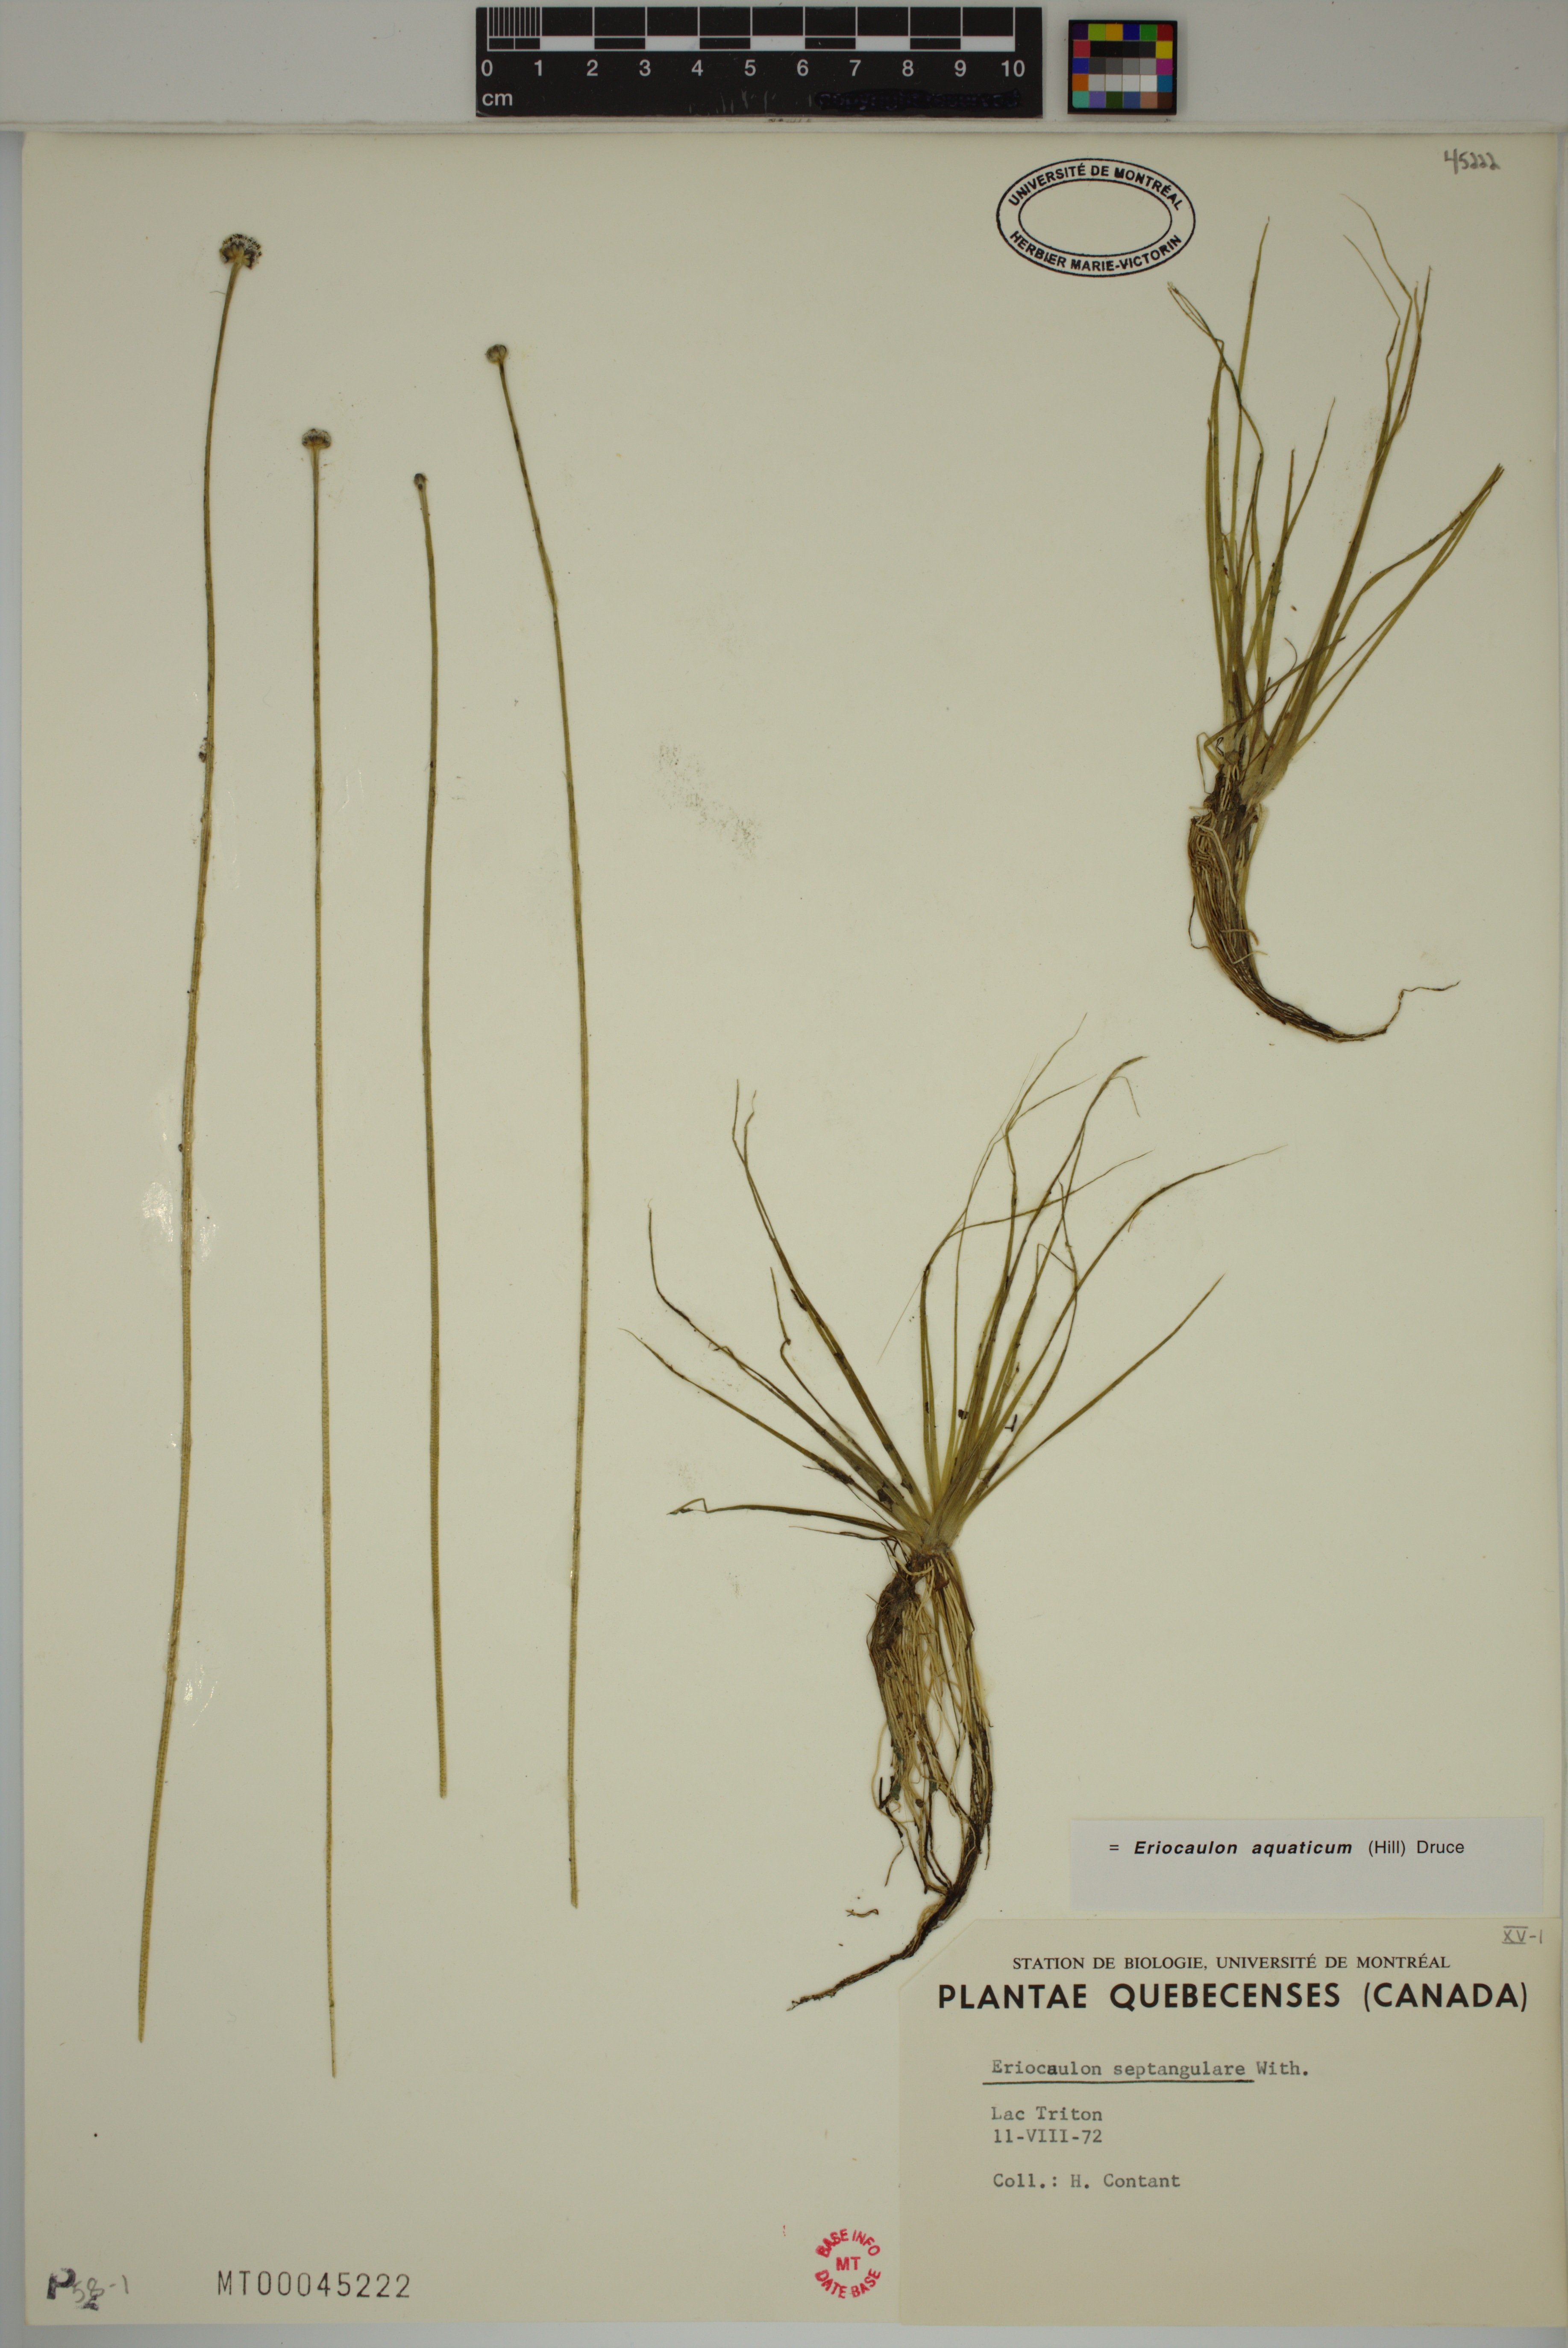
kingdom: Plantae
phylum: Tracheophyta
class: Liliopsida
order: Poales
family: Eriocaulaceae
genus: Eriocaulon
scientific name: Eriocaulon aquaticum
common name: Pipewort
